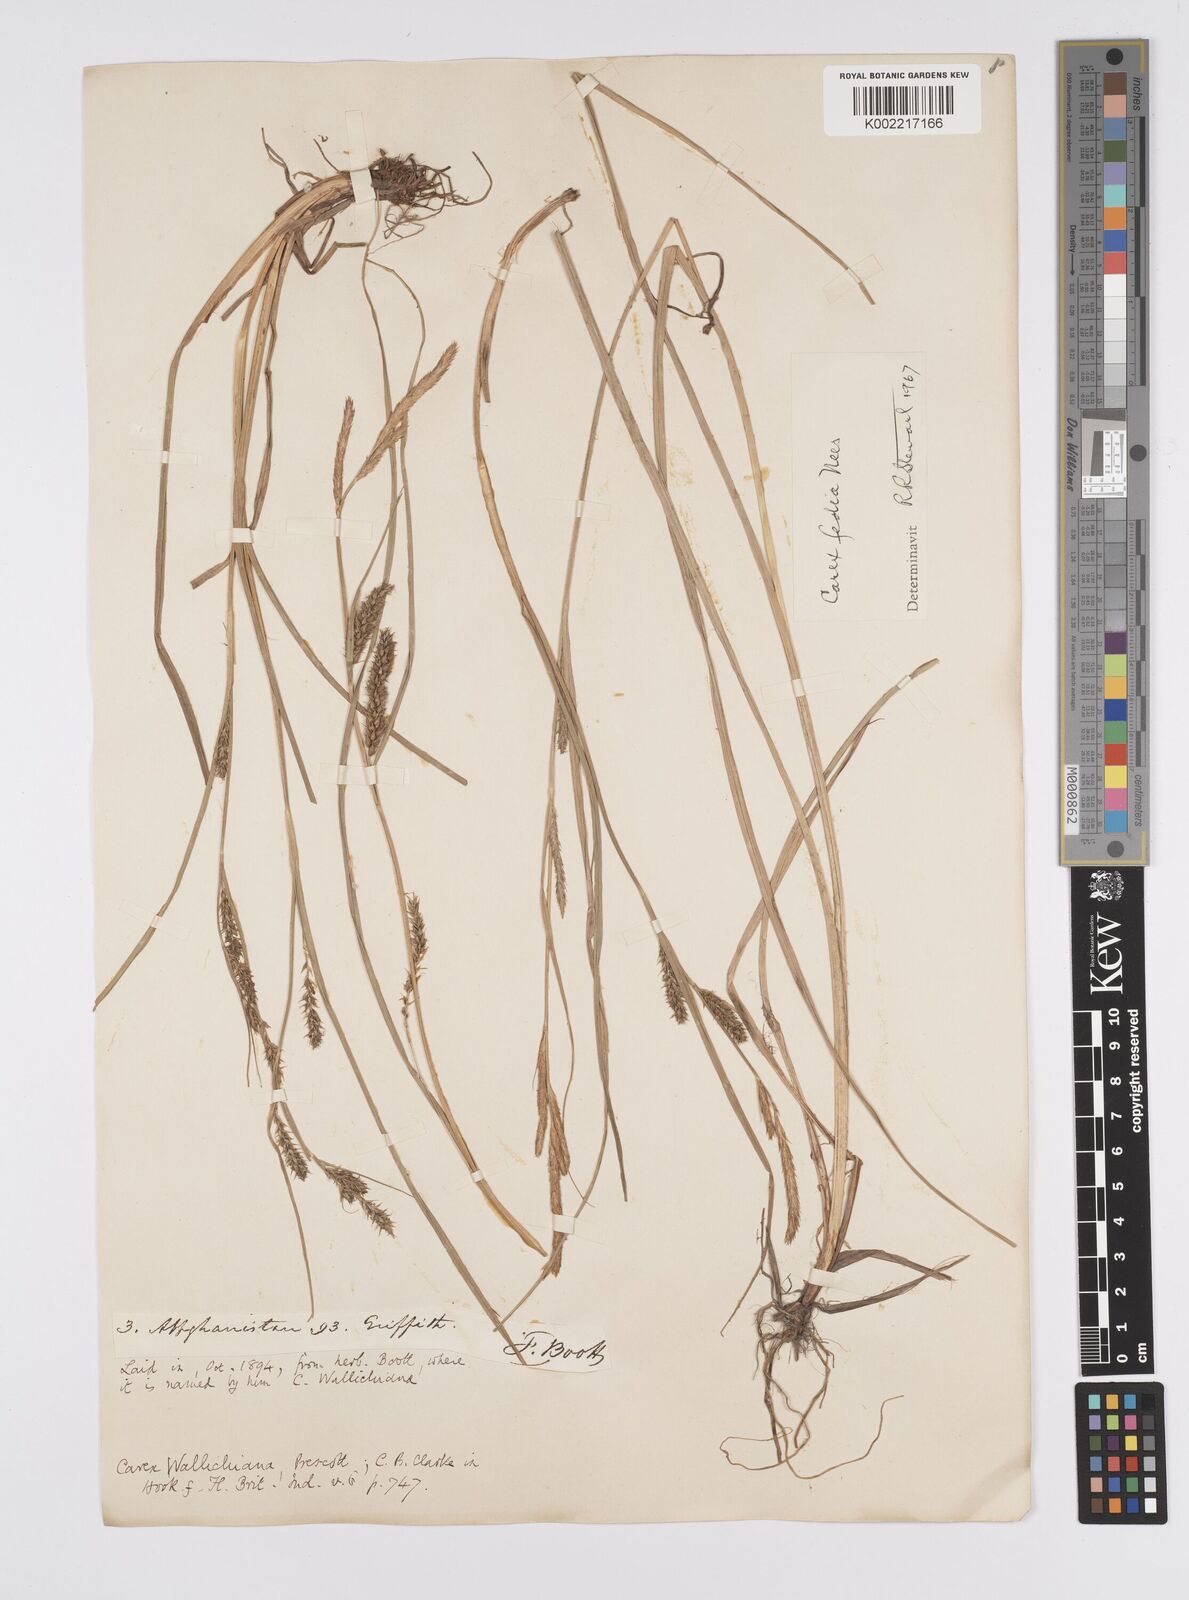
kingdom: Plantae
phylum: Tracheophyta
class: Liliopsida
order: Poales
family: Cyperaceae
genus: Carex
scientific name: Carex fedia
